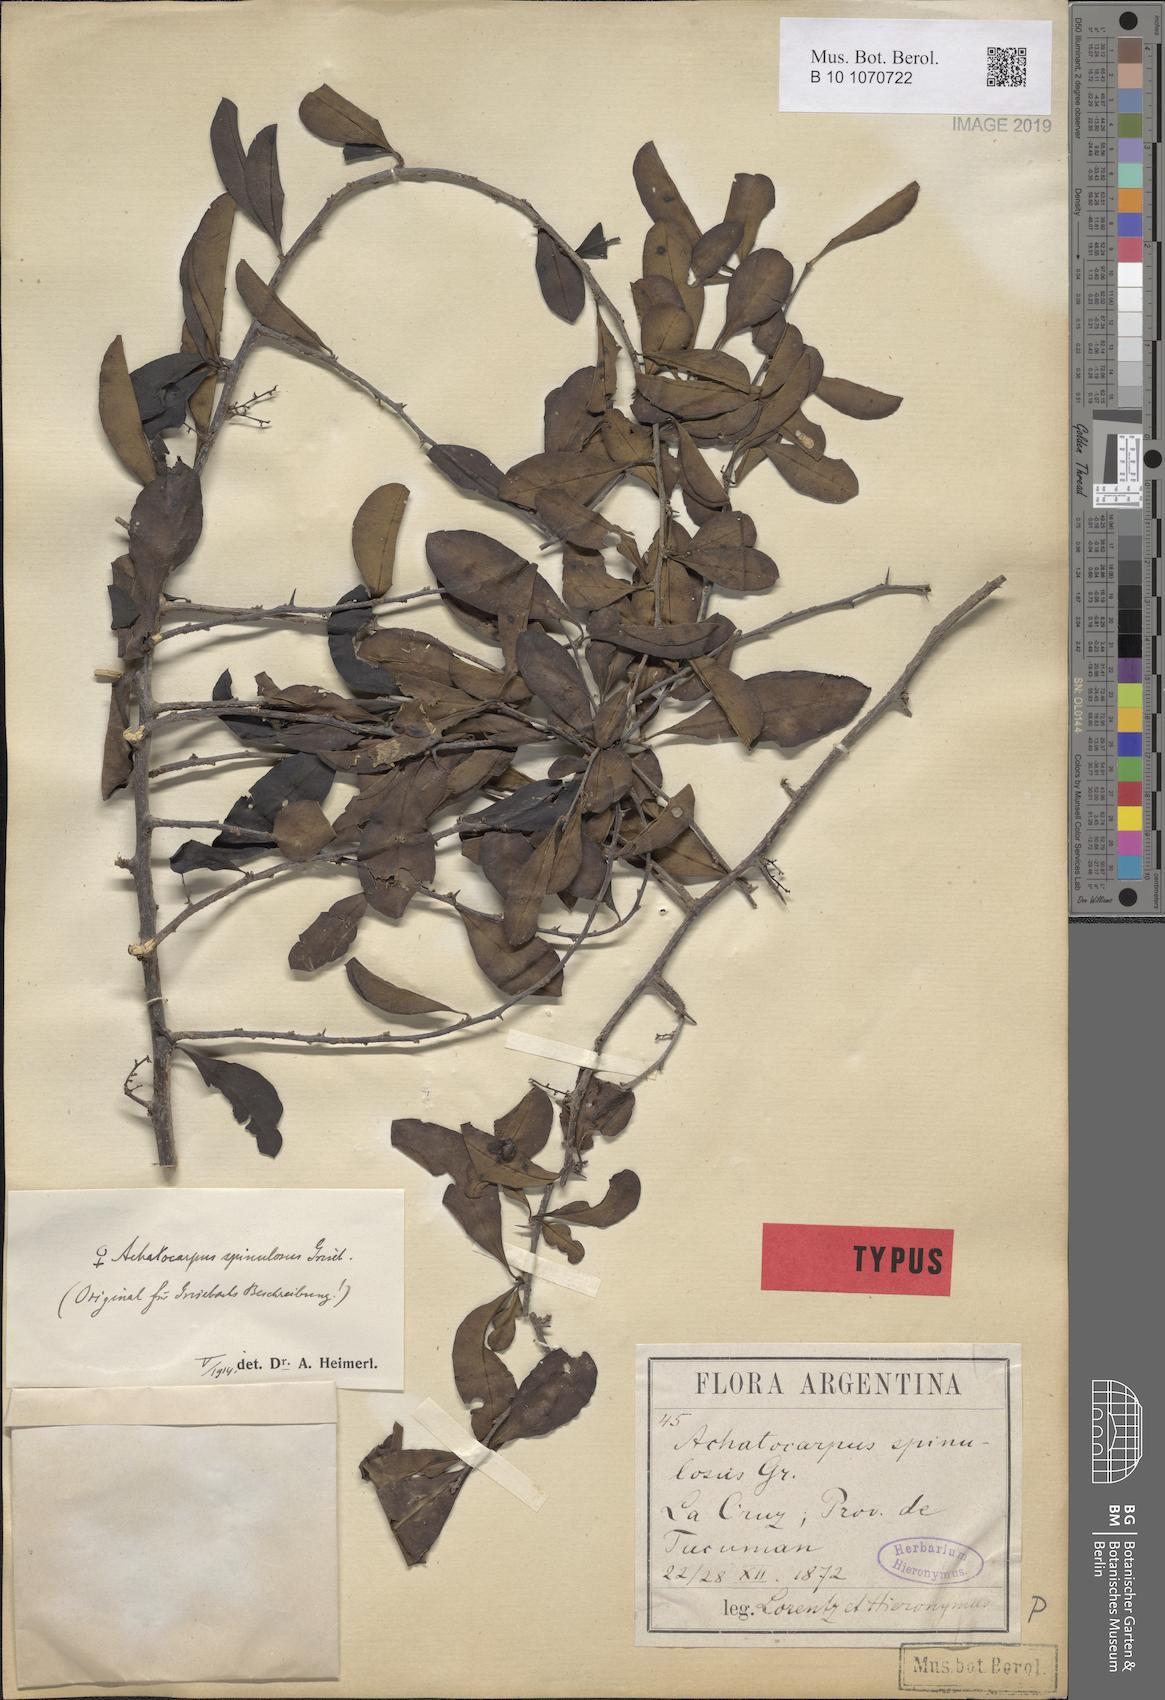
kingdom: Plantae
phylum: Tracheophyta
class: Magnoliopsida
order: Caryophyllales
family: Achatocarpaceae
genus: Achatocarpus
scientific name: Achatocarpus praecox
